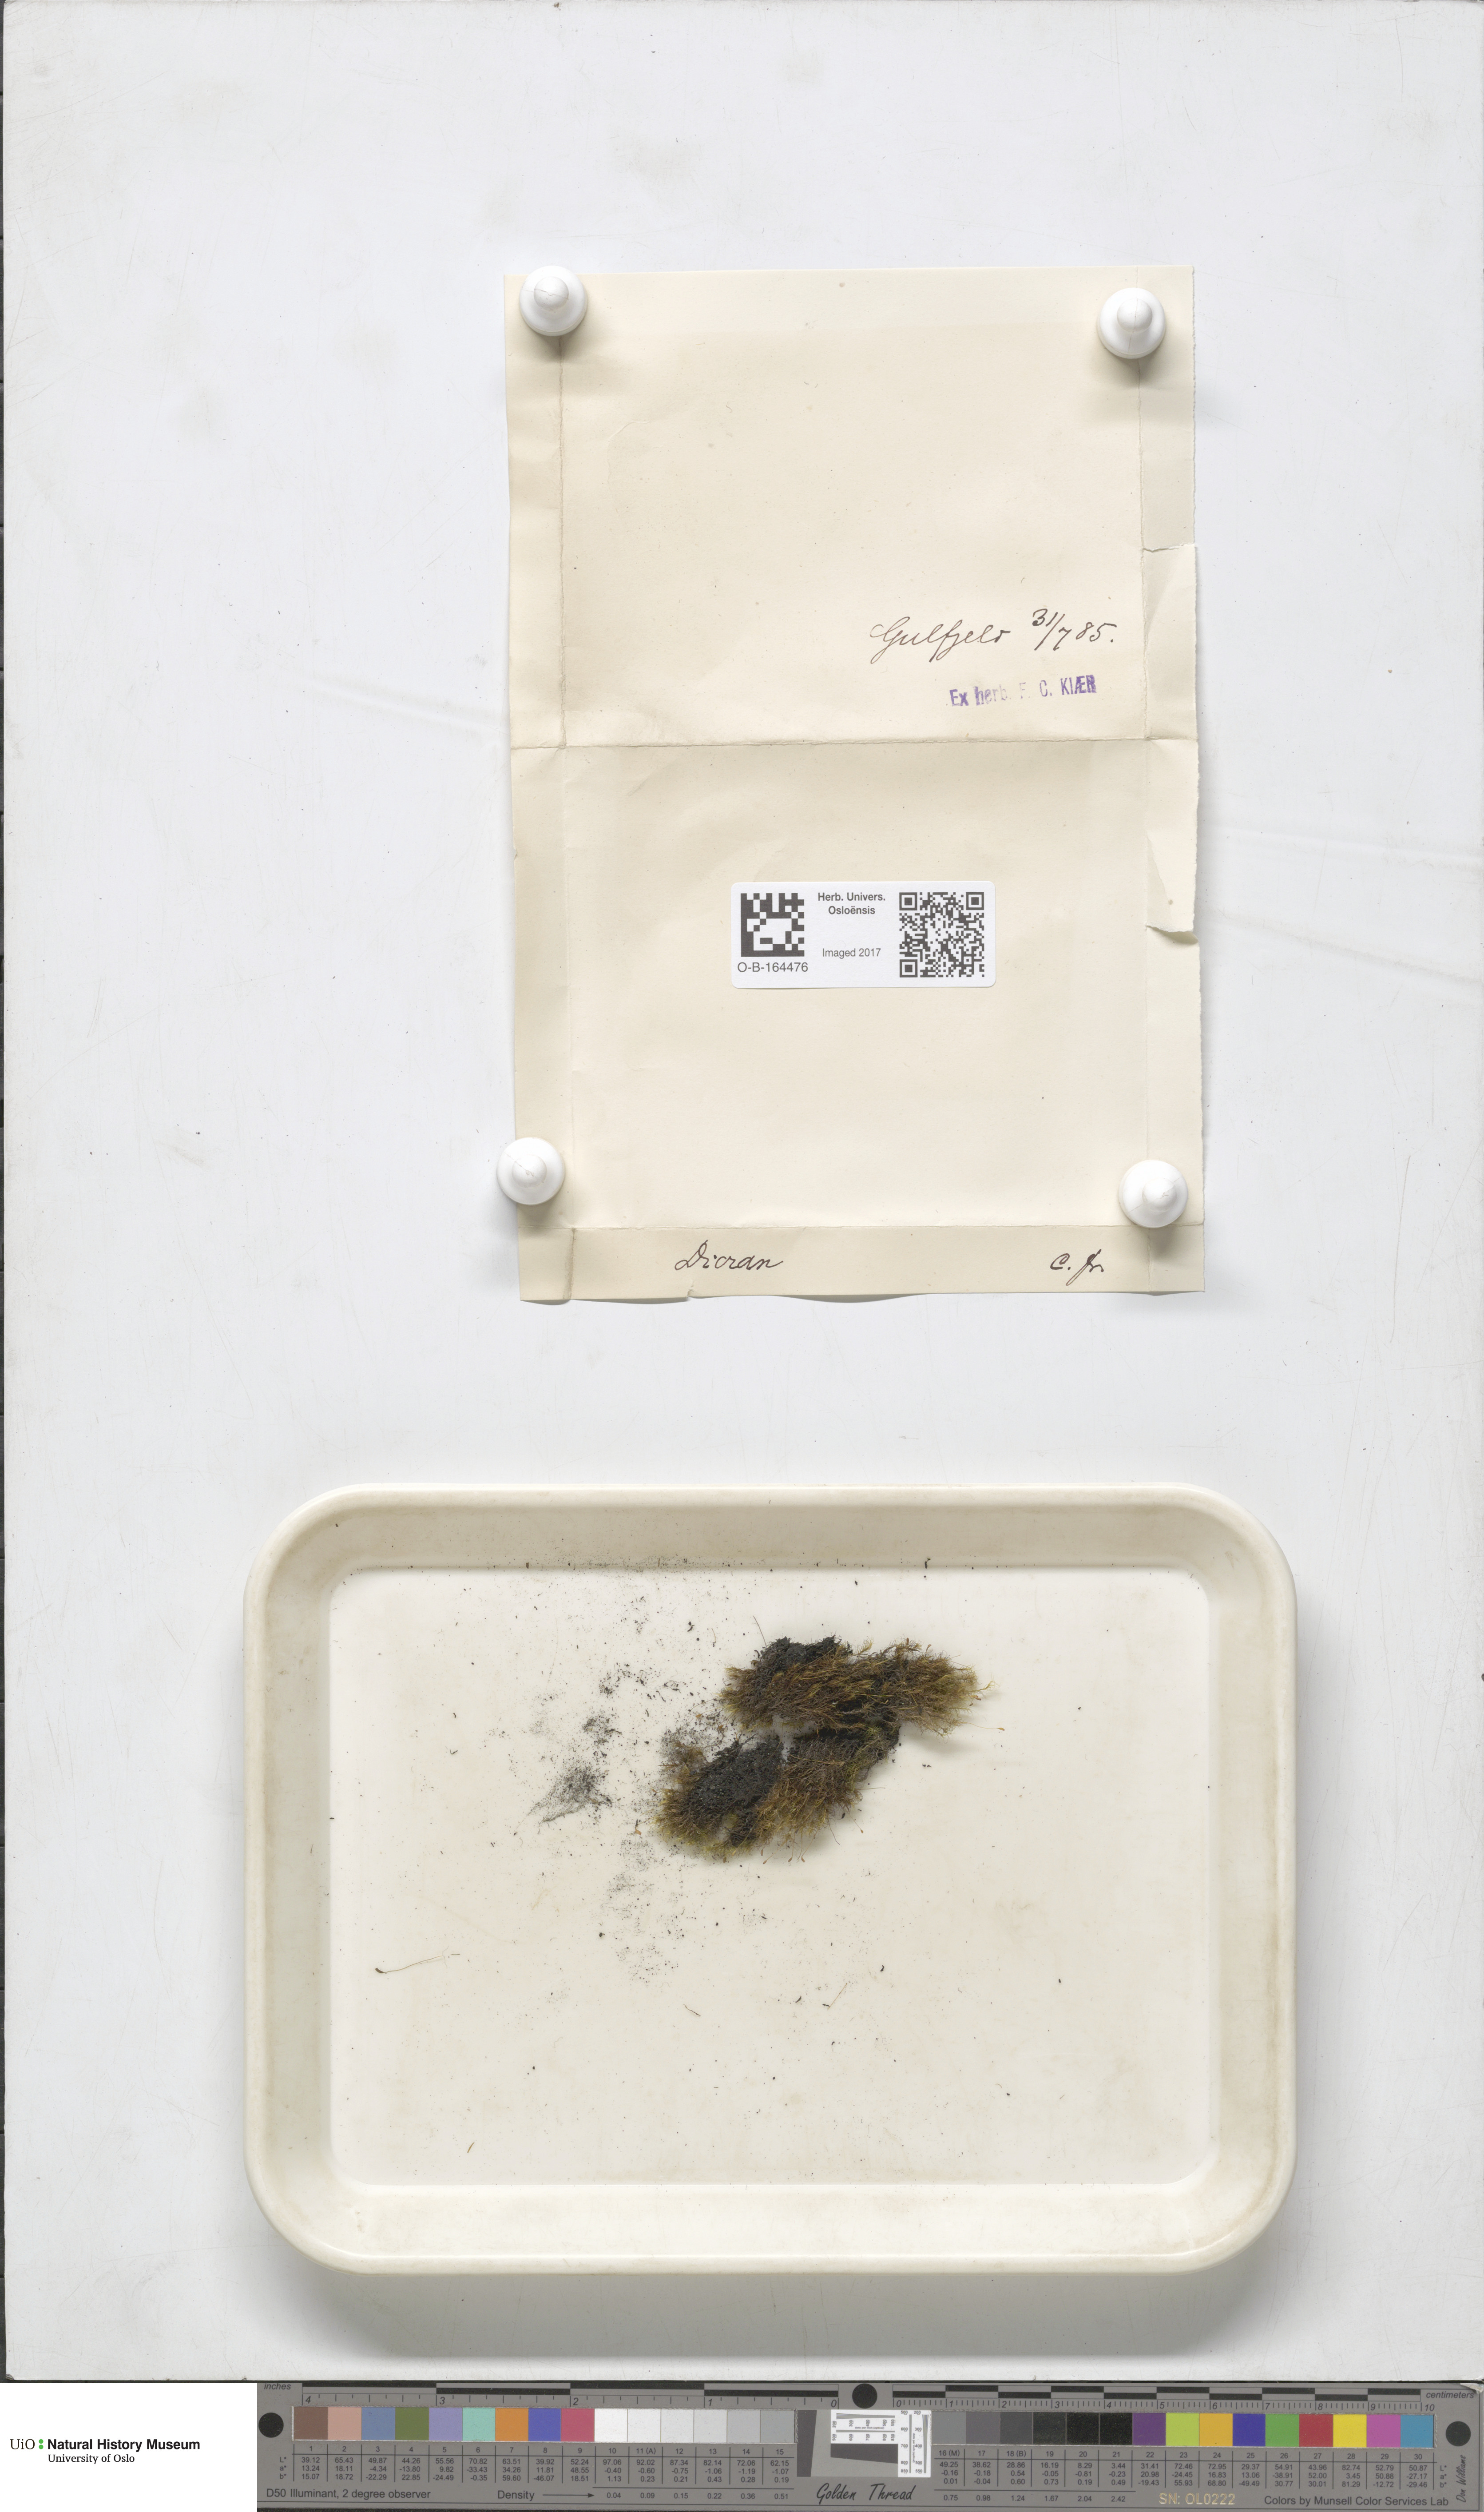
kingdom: Plantae
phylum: Bryophyta
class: Bryopsida
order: Dicranales
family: Dicranaceae
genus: Dicranum
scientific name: Dicranum
